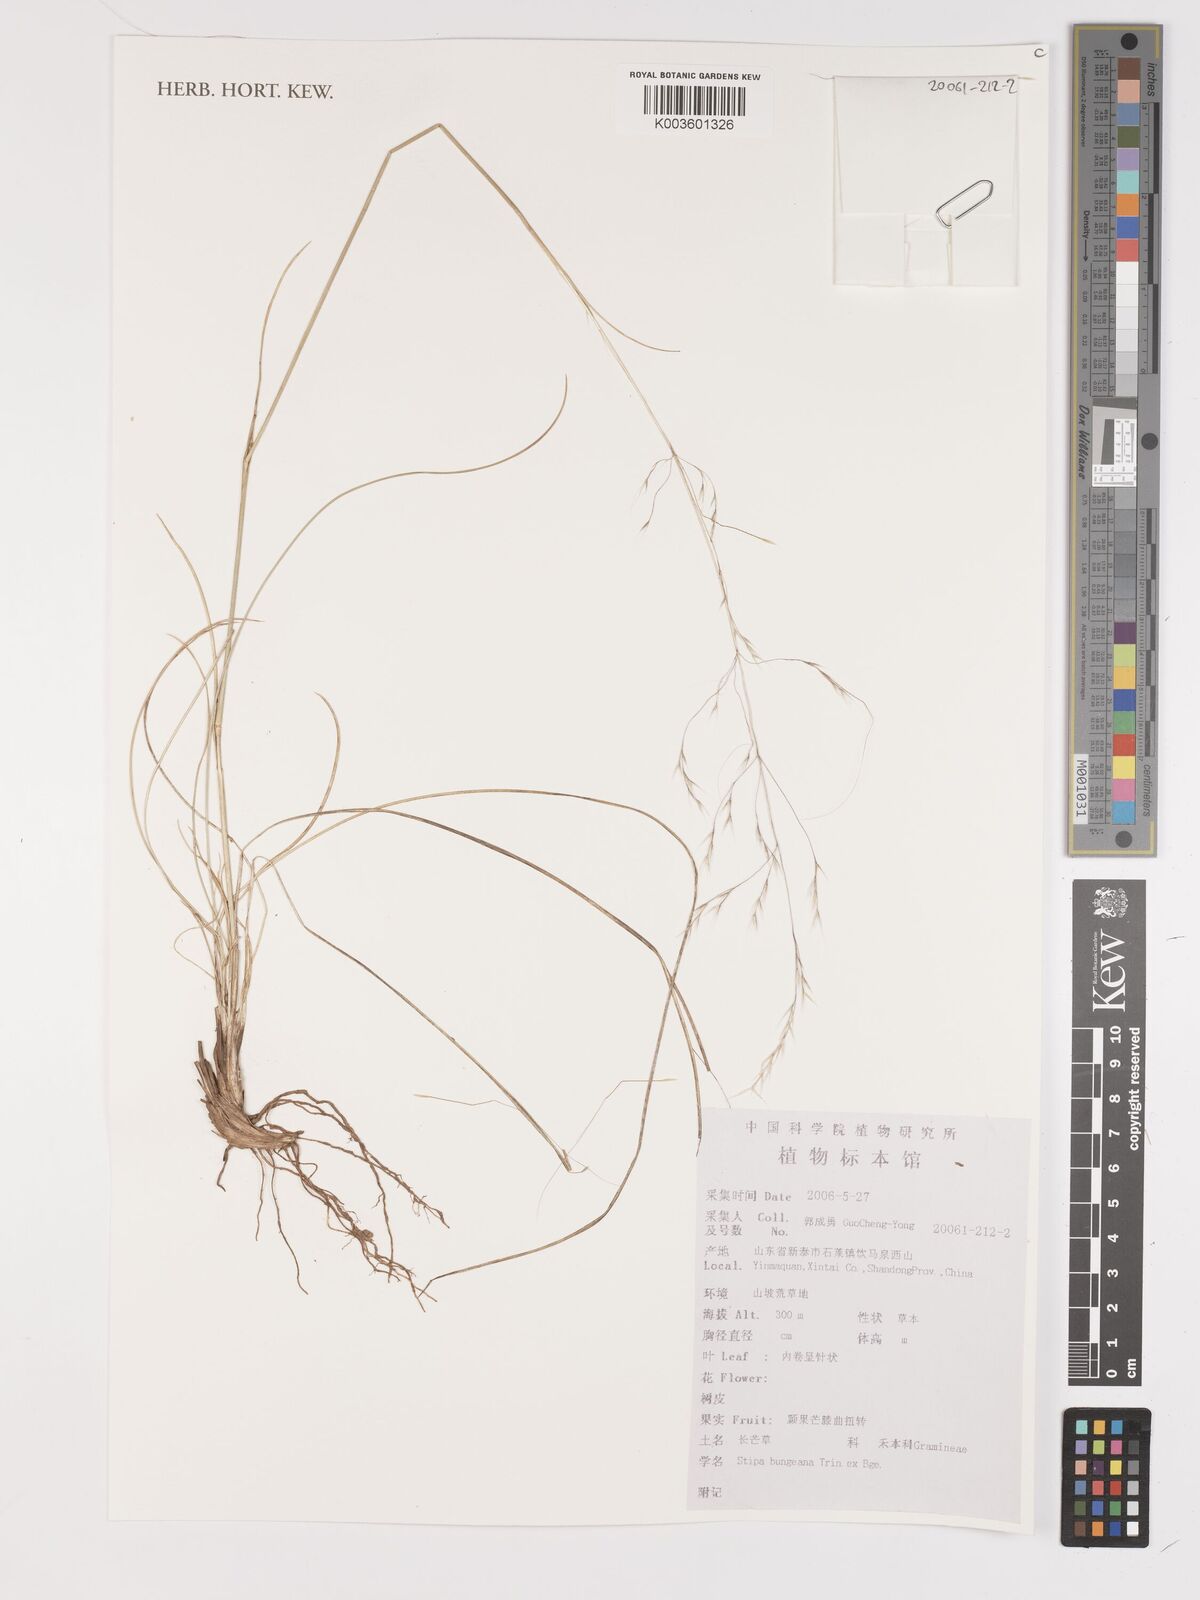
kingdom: Plantae
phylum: Tracheophyta
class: Liliopsida
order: Poales
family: Poaceae
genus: Stipa
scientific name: Stipa bungeana
